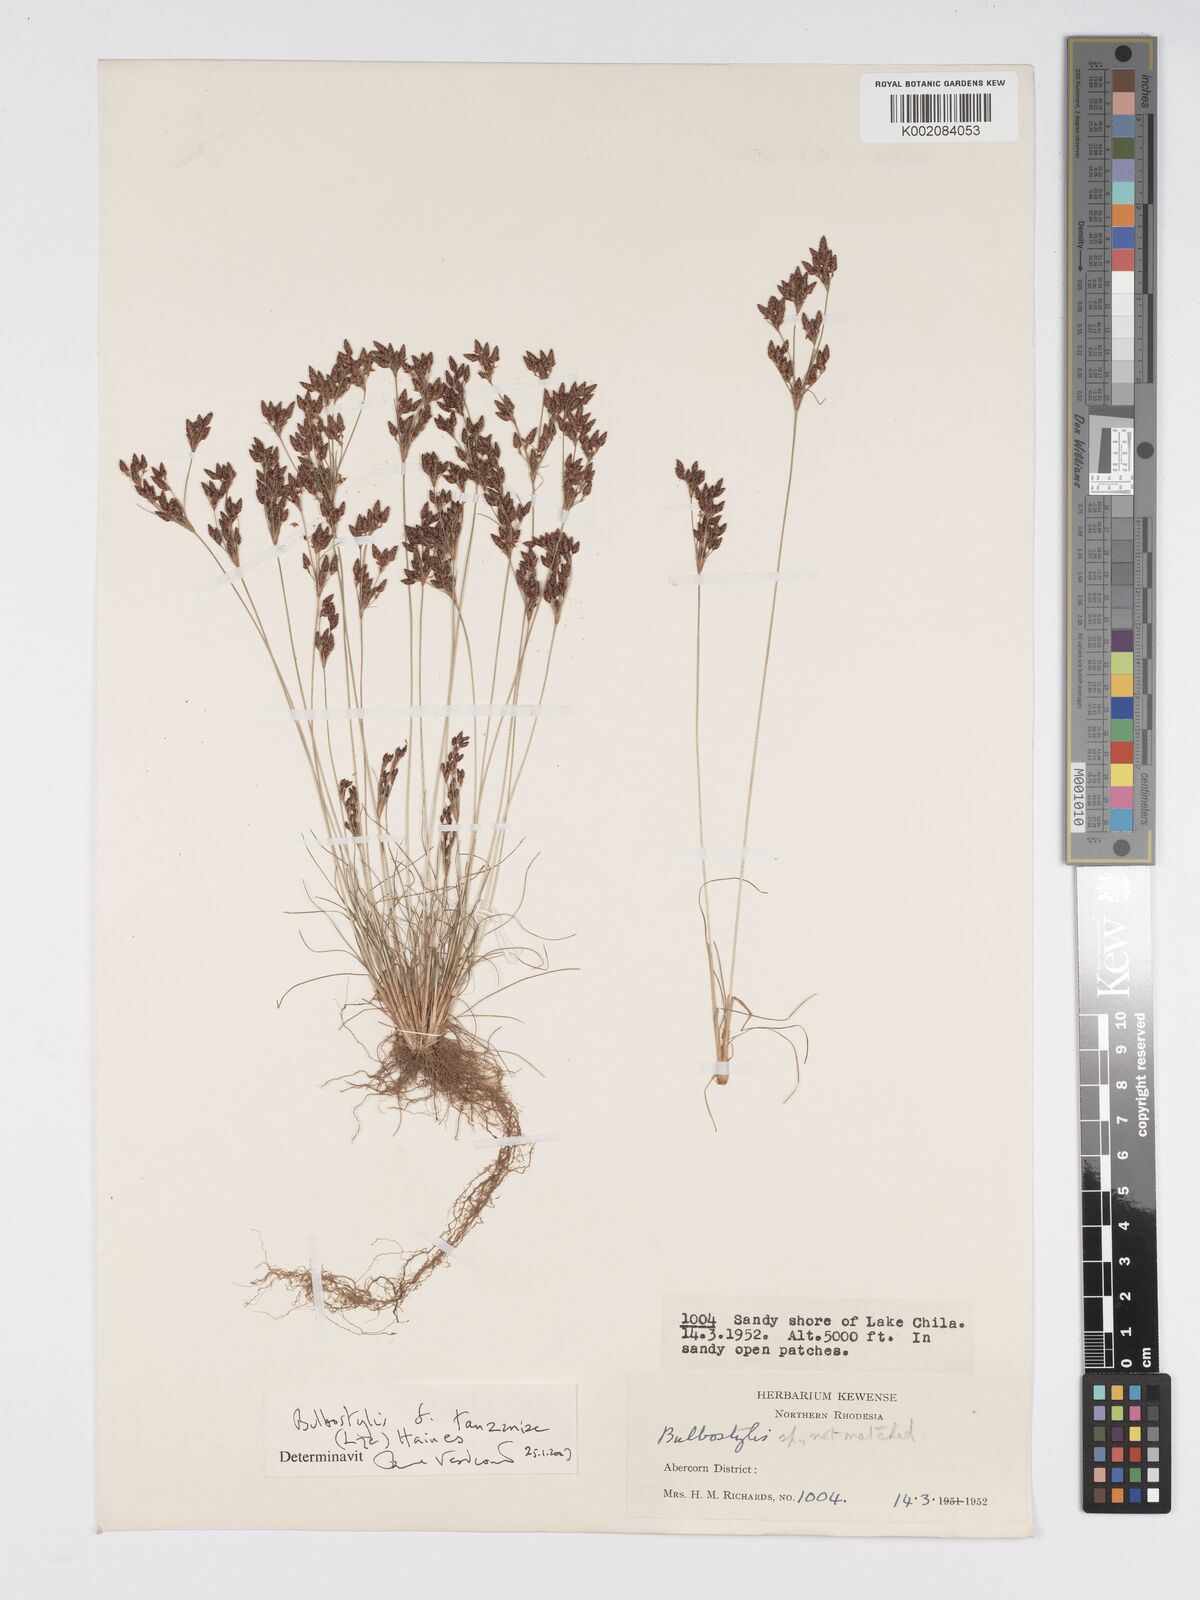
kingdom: Plantae
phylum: Tracheophyta
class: Liliopsida
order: Poales
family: Cyperaceae
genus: Bulbostylis
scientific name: Bulbostylis tanzaniae
